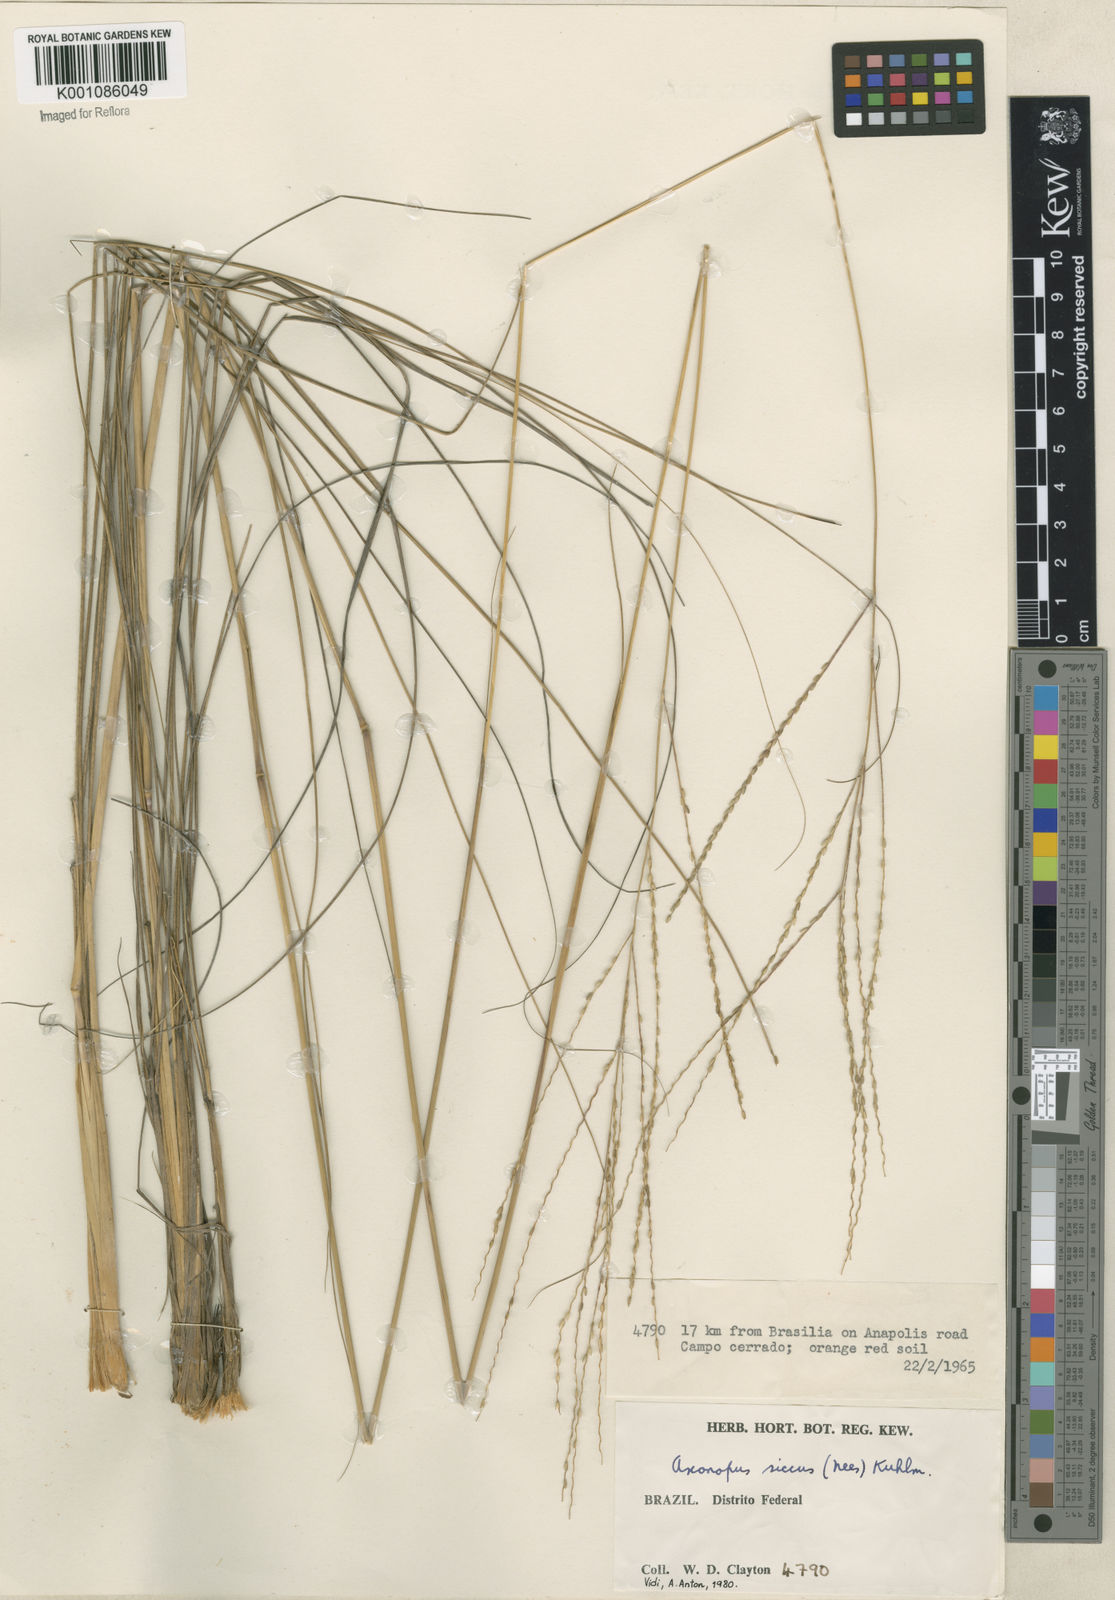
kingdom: Plantae
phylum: Tracheophyta
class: Liliopsida
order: Poales
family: Poaceae
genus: Axonopus
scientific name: Axonopus siccus
